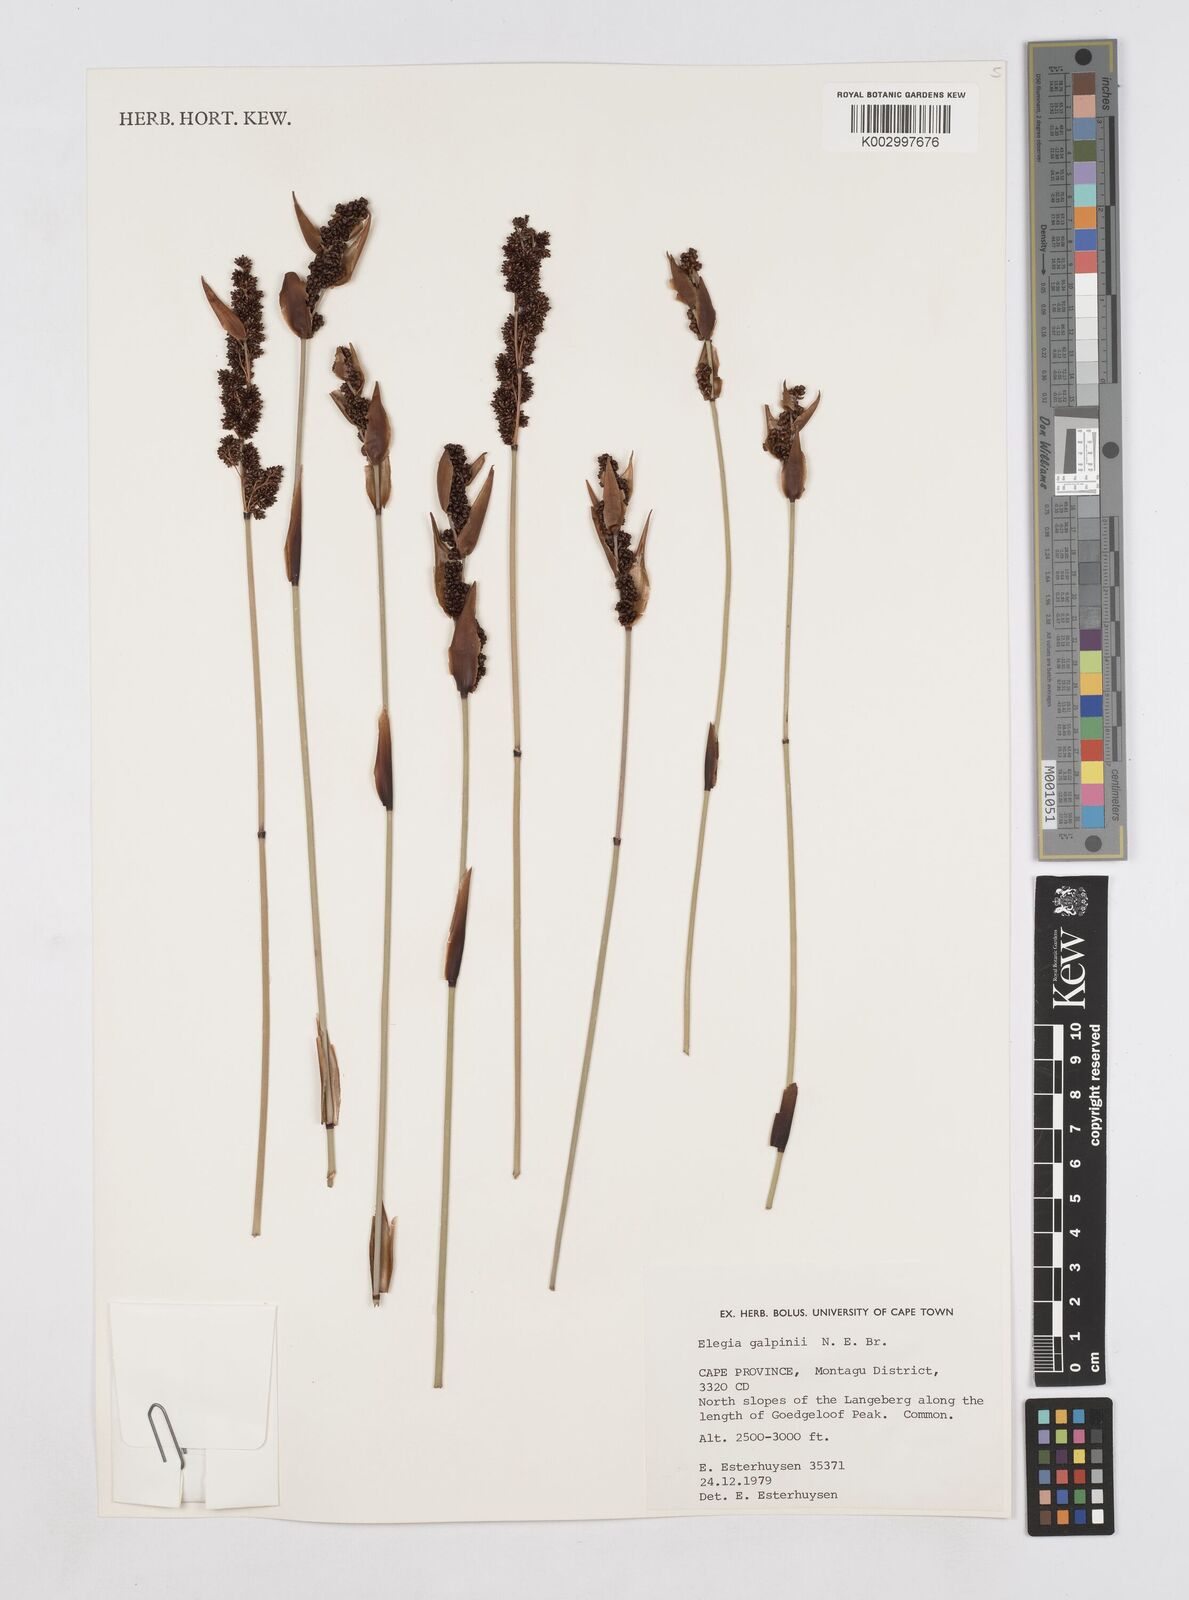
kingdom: Plantae
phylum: Tracheophyta
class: Liliopsida
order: Poales
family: Restionaceae
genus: Elegia
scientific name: Elegia galpinii
